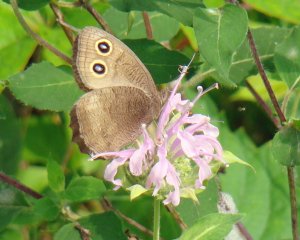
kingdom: Animalia
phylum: Arthropoda
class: Insecta
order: Lepidoptera
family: Nymphalidae
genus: Cercyonis
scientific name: Cercyonis pegala
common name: Common Wood-Nymph
